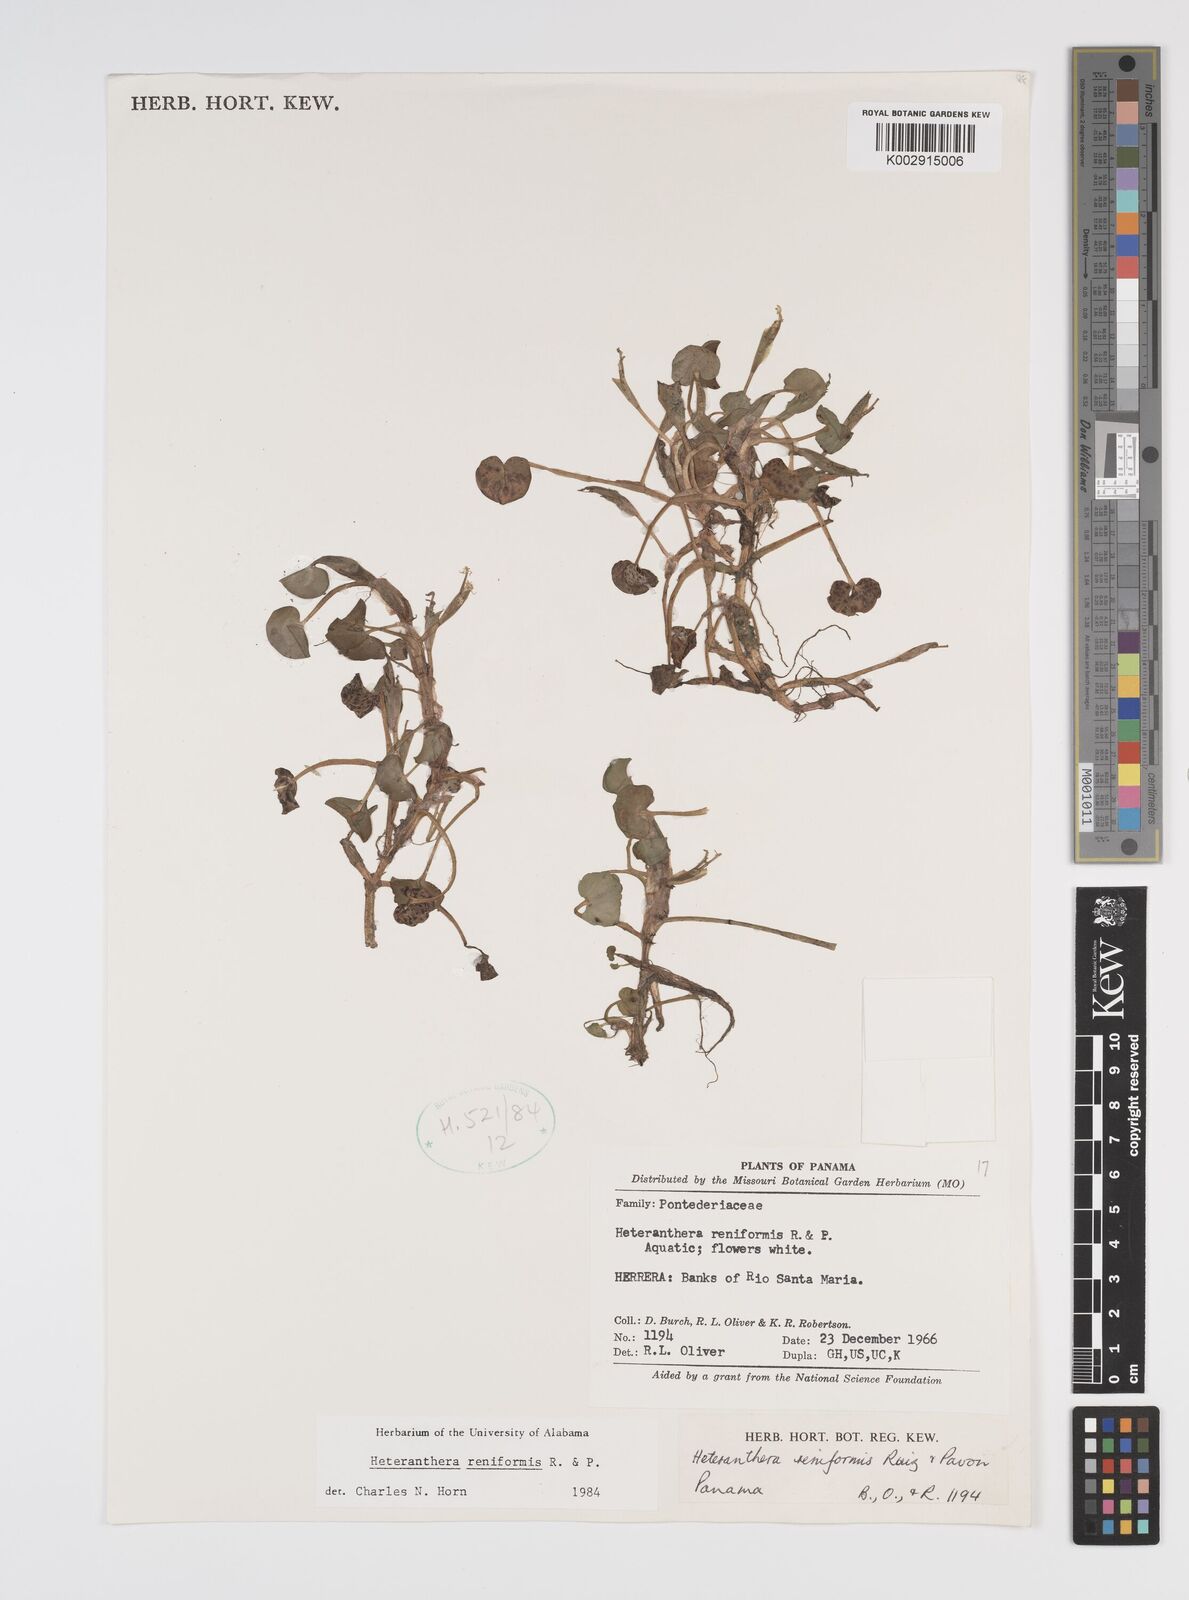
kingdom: Plantae
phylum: Tracheophyta
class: Liliopsida
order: Commelinales
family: Pontederiaceae
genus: Heteranthera
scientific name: Heteranthera reniformis
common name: Kidneyleaf mudplantain
